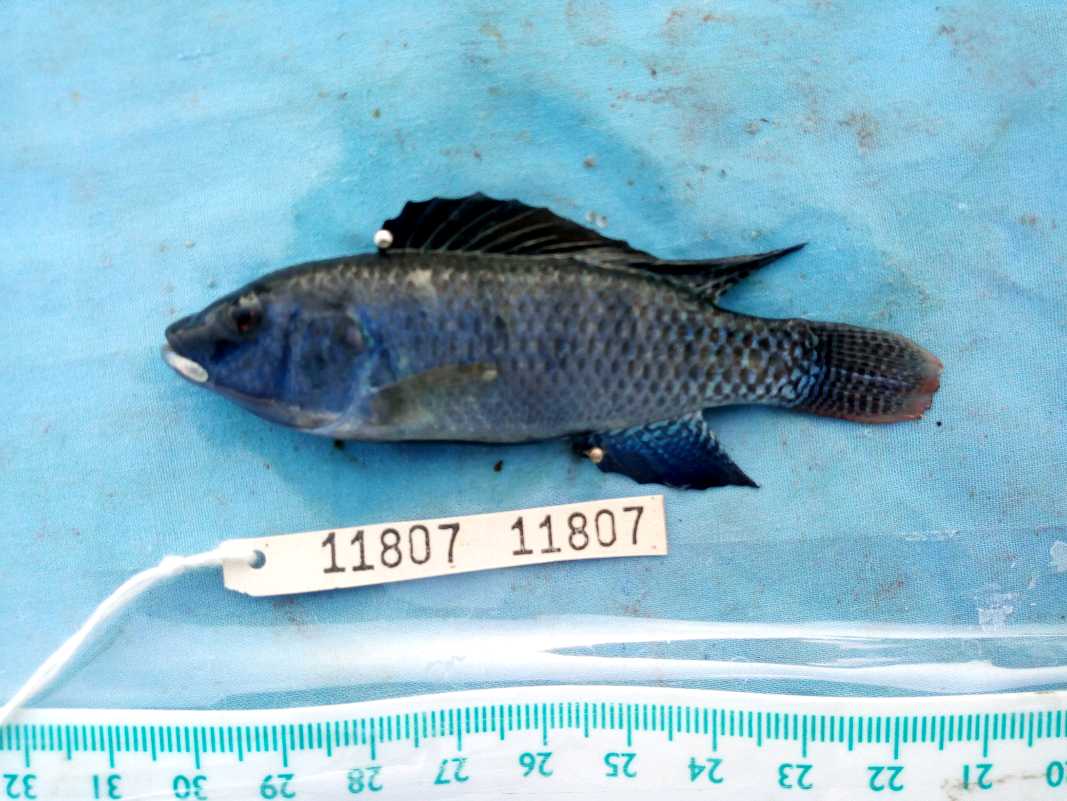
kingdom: Animalia
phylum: Chordata
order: Perciformes
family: Cichlidae
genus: Alcolapia
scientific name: Alcolapia grahami
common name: Lake magadi tilapia
